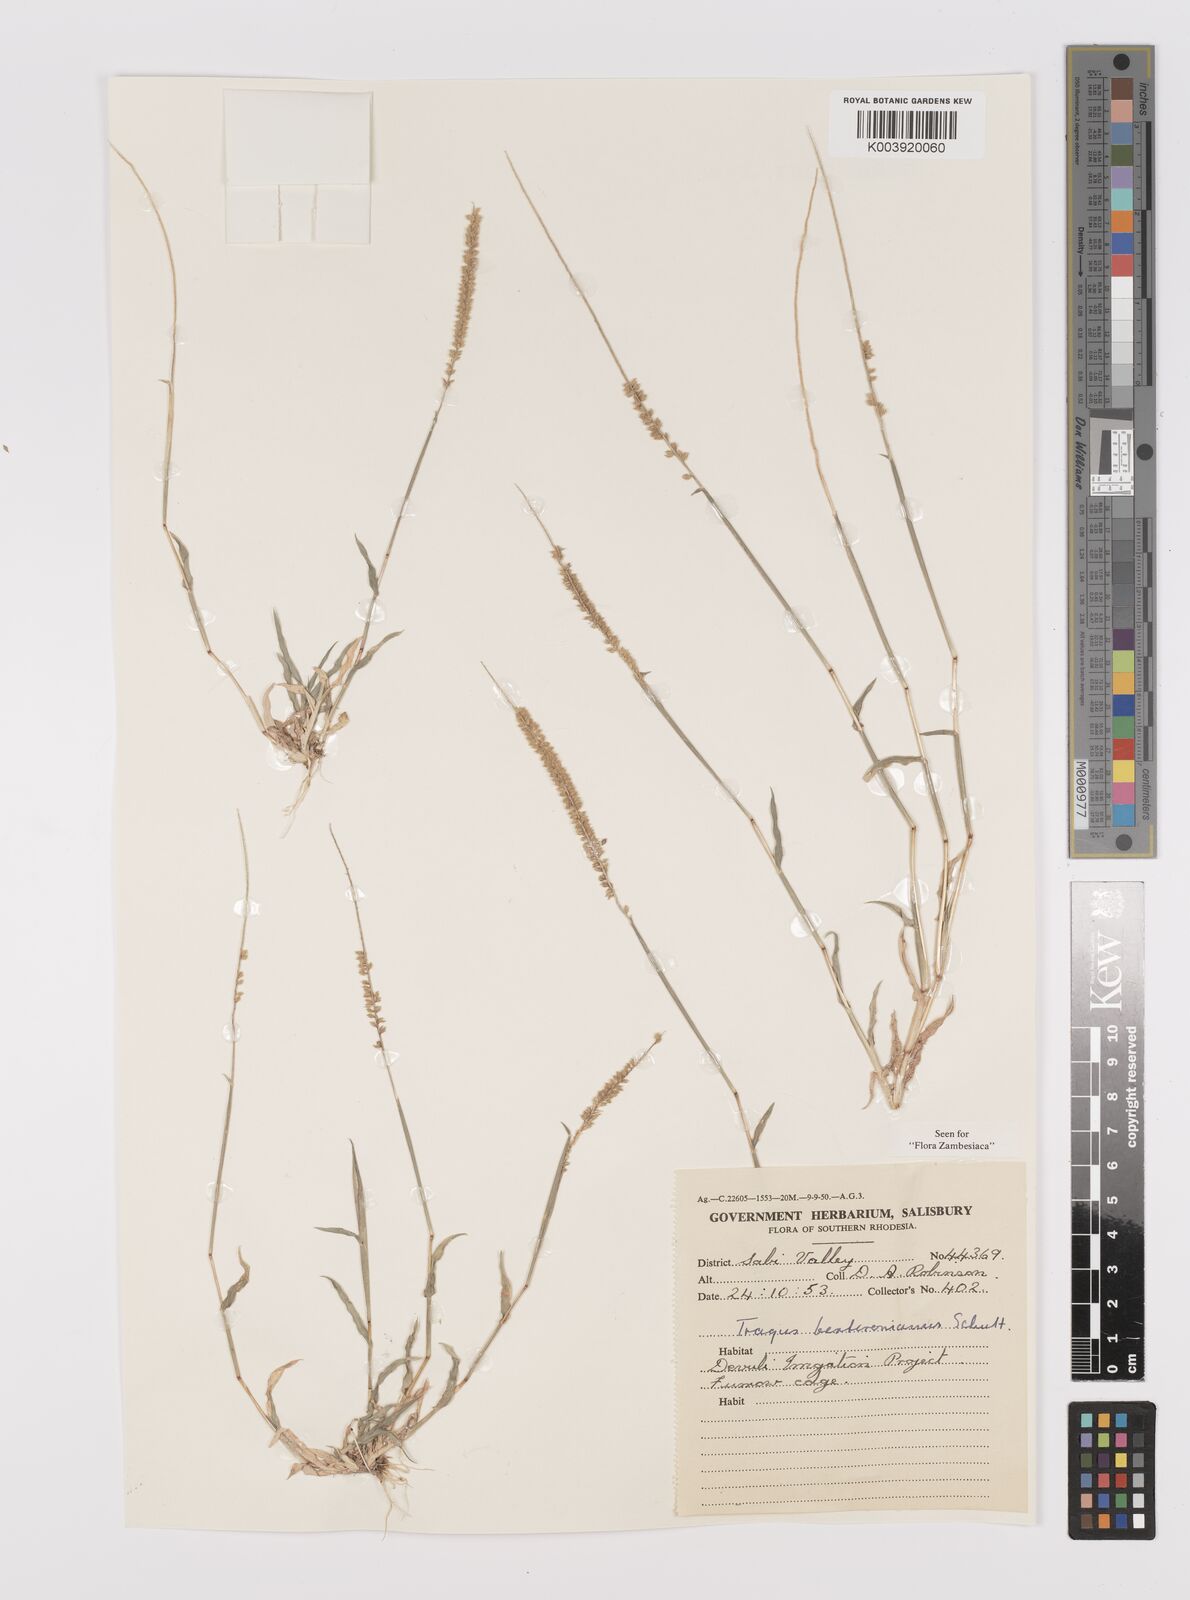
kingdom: Plantae
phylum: Tracheophyta
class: Liliopsida
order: Poales
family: Poaceae
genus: Tragus
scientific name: Tragus berteronianus
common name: African bur-grass
